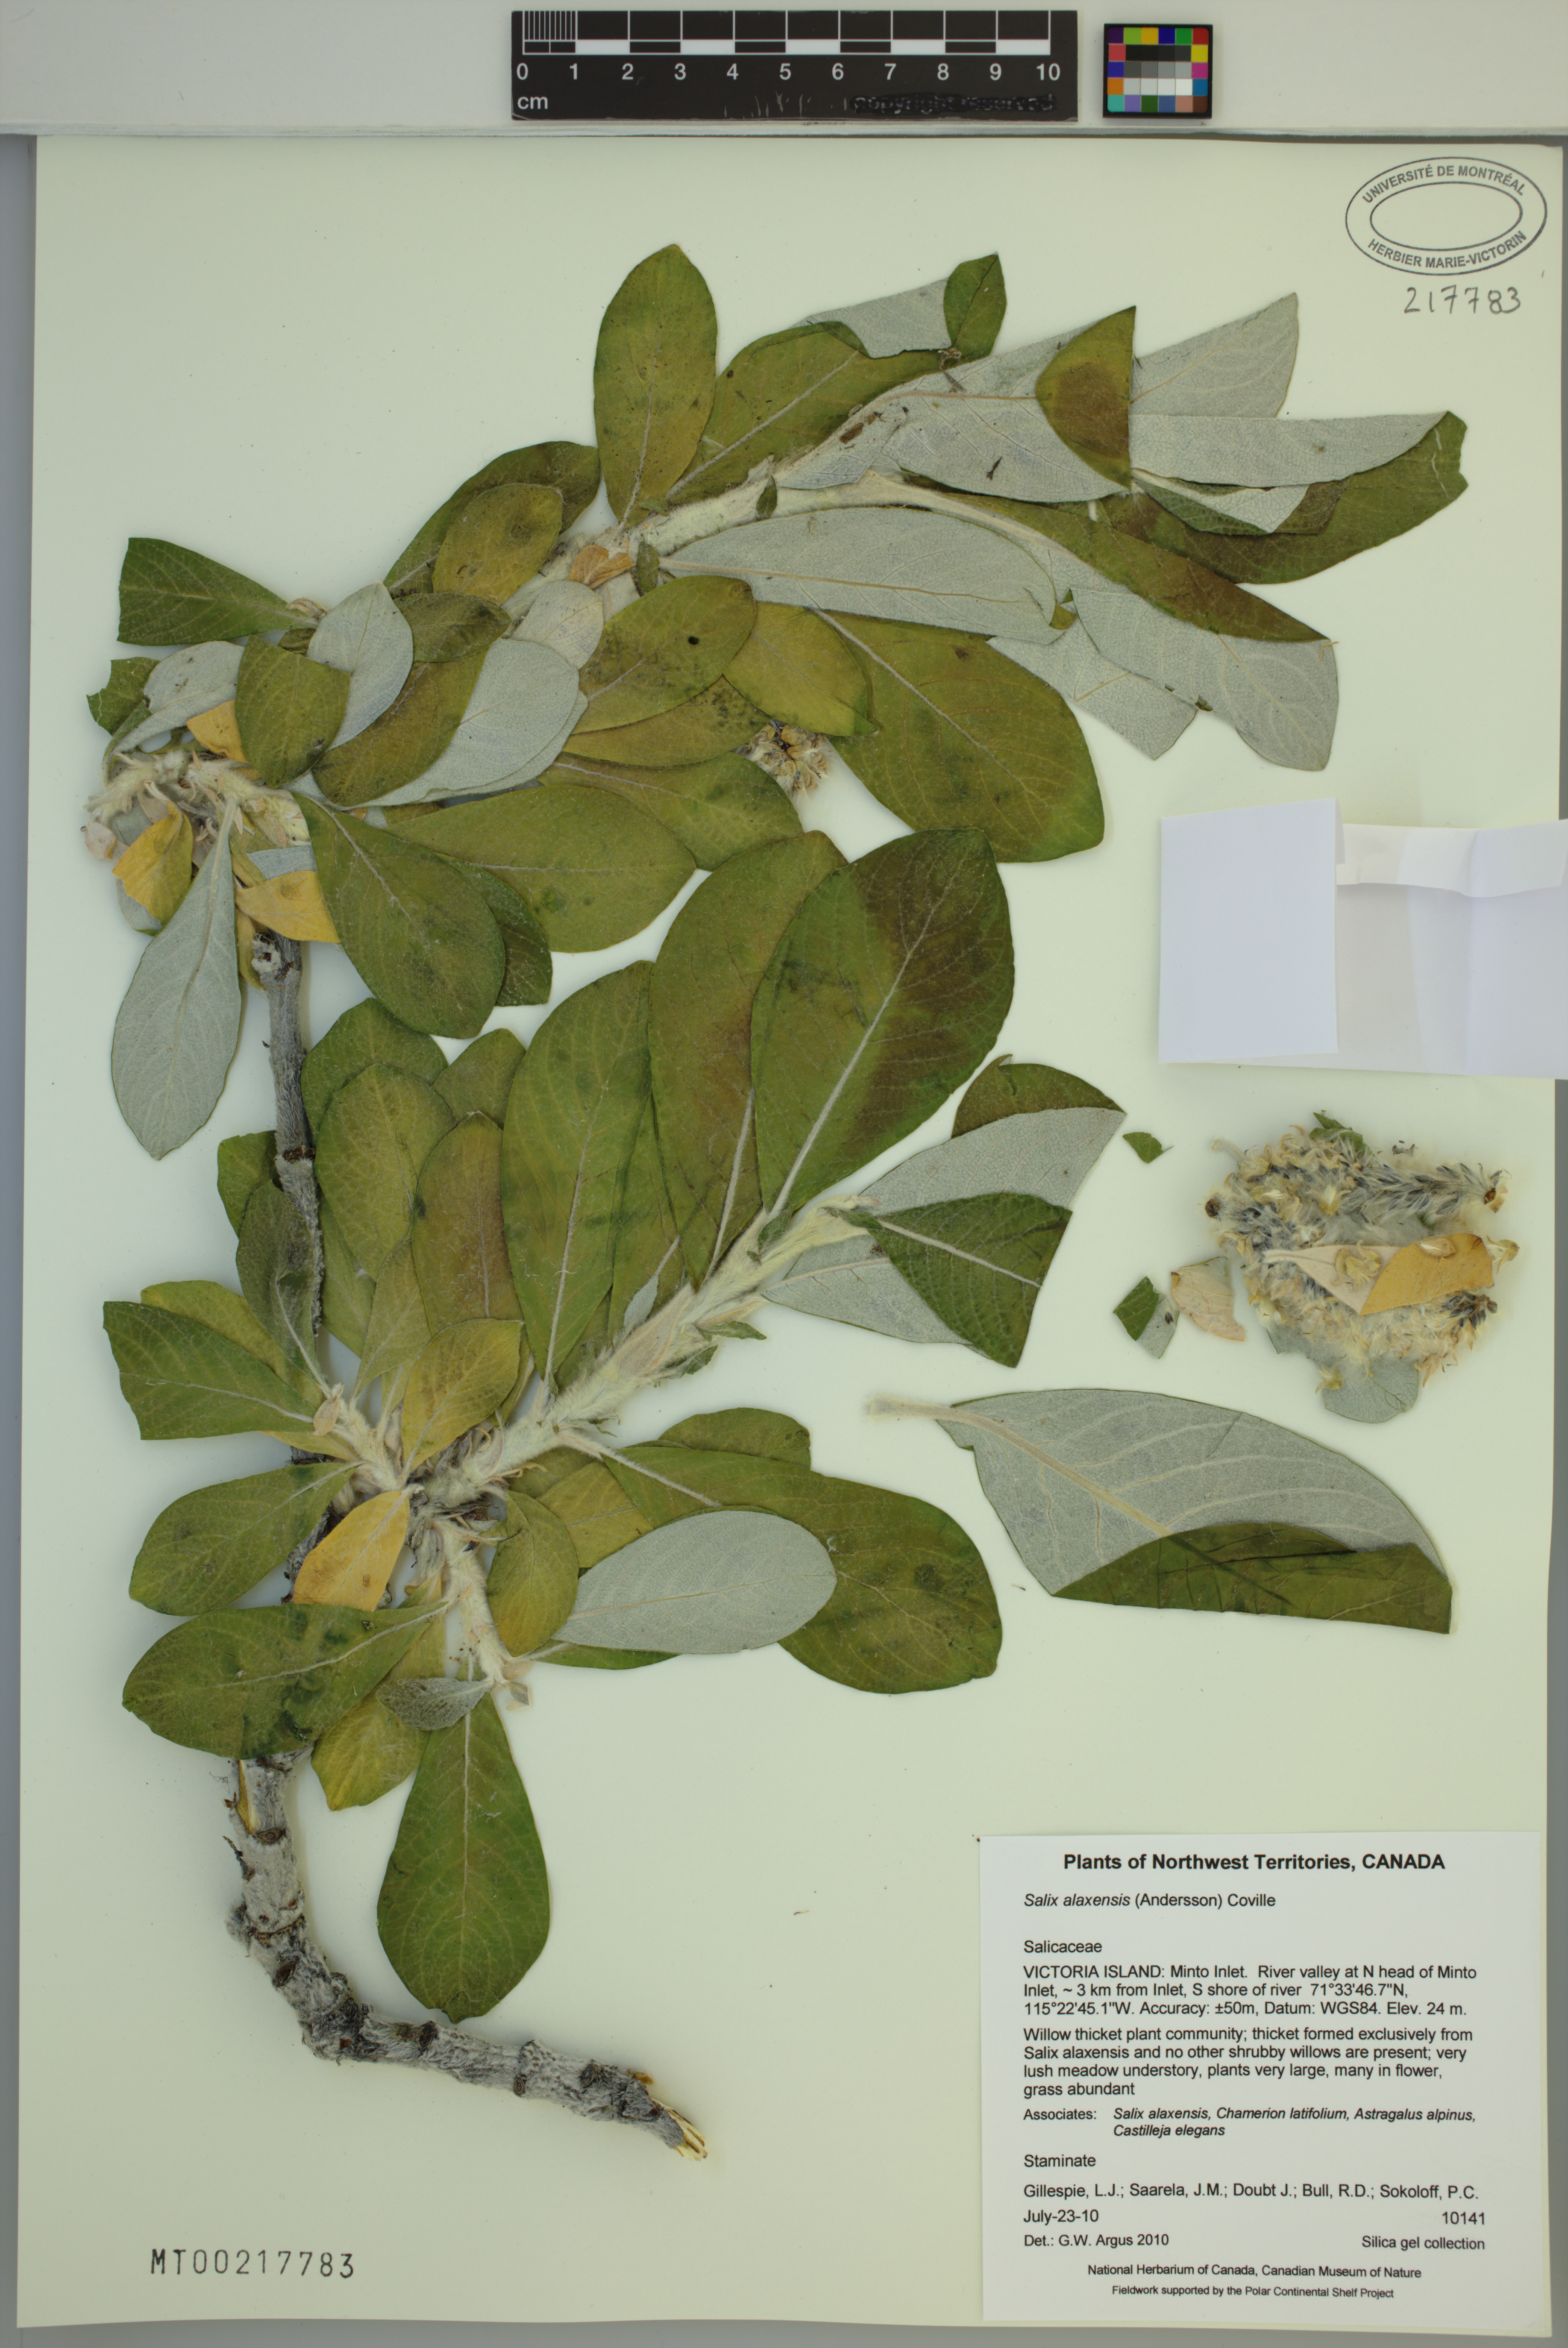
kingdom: Plantae
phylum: Tracheophyta
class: Magnoliopsida
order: Malpighiales
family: Salicaceae
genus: Salix
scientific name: Salix alaxensis
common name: Feltleaf willow
